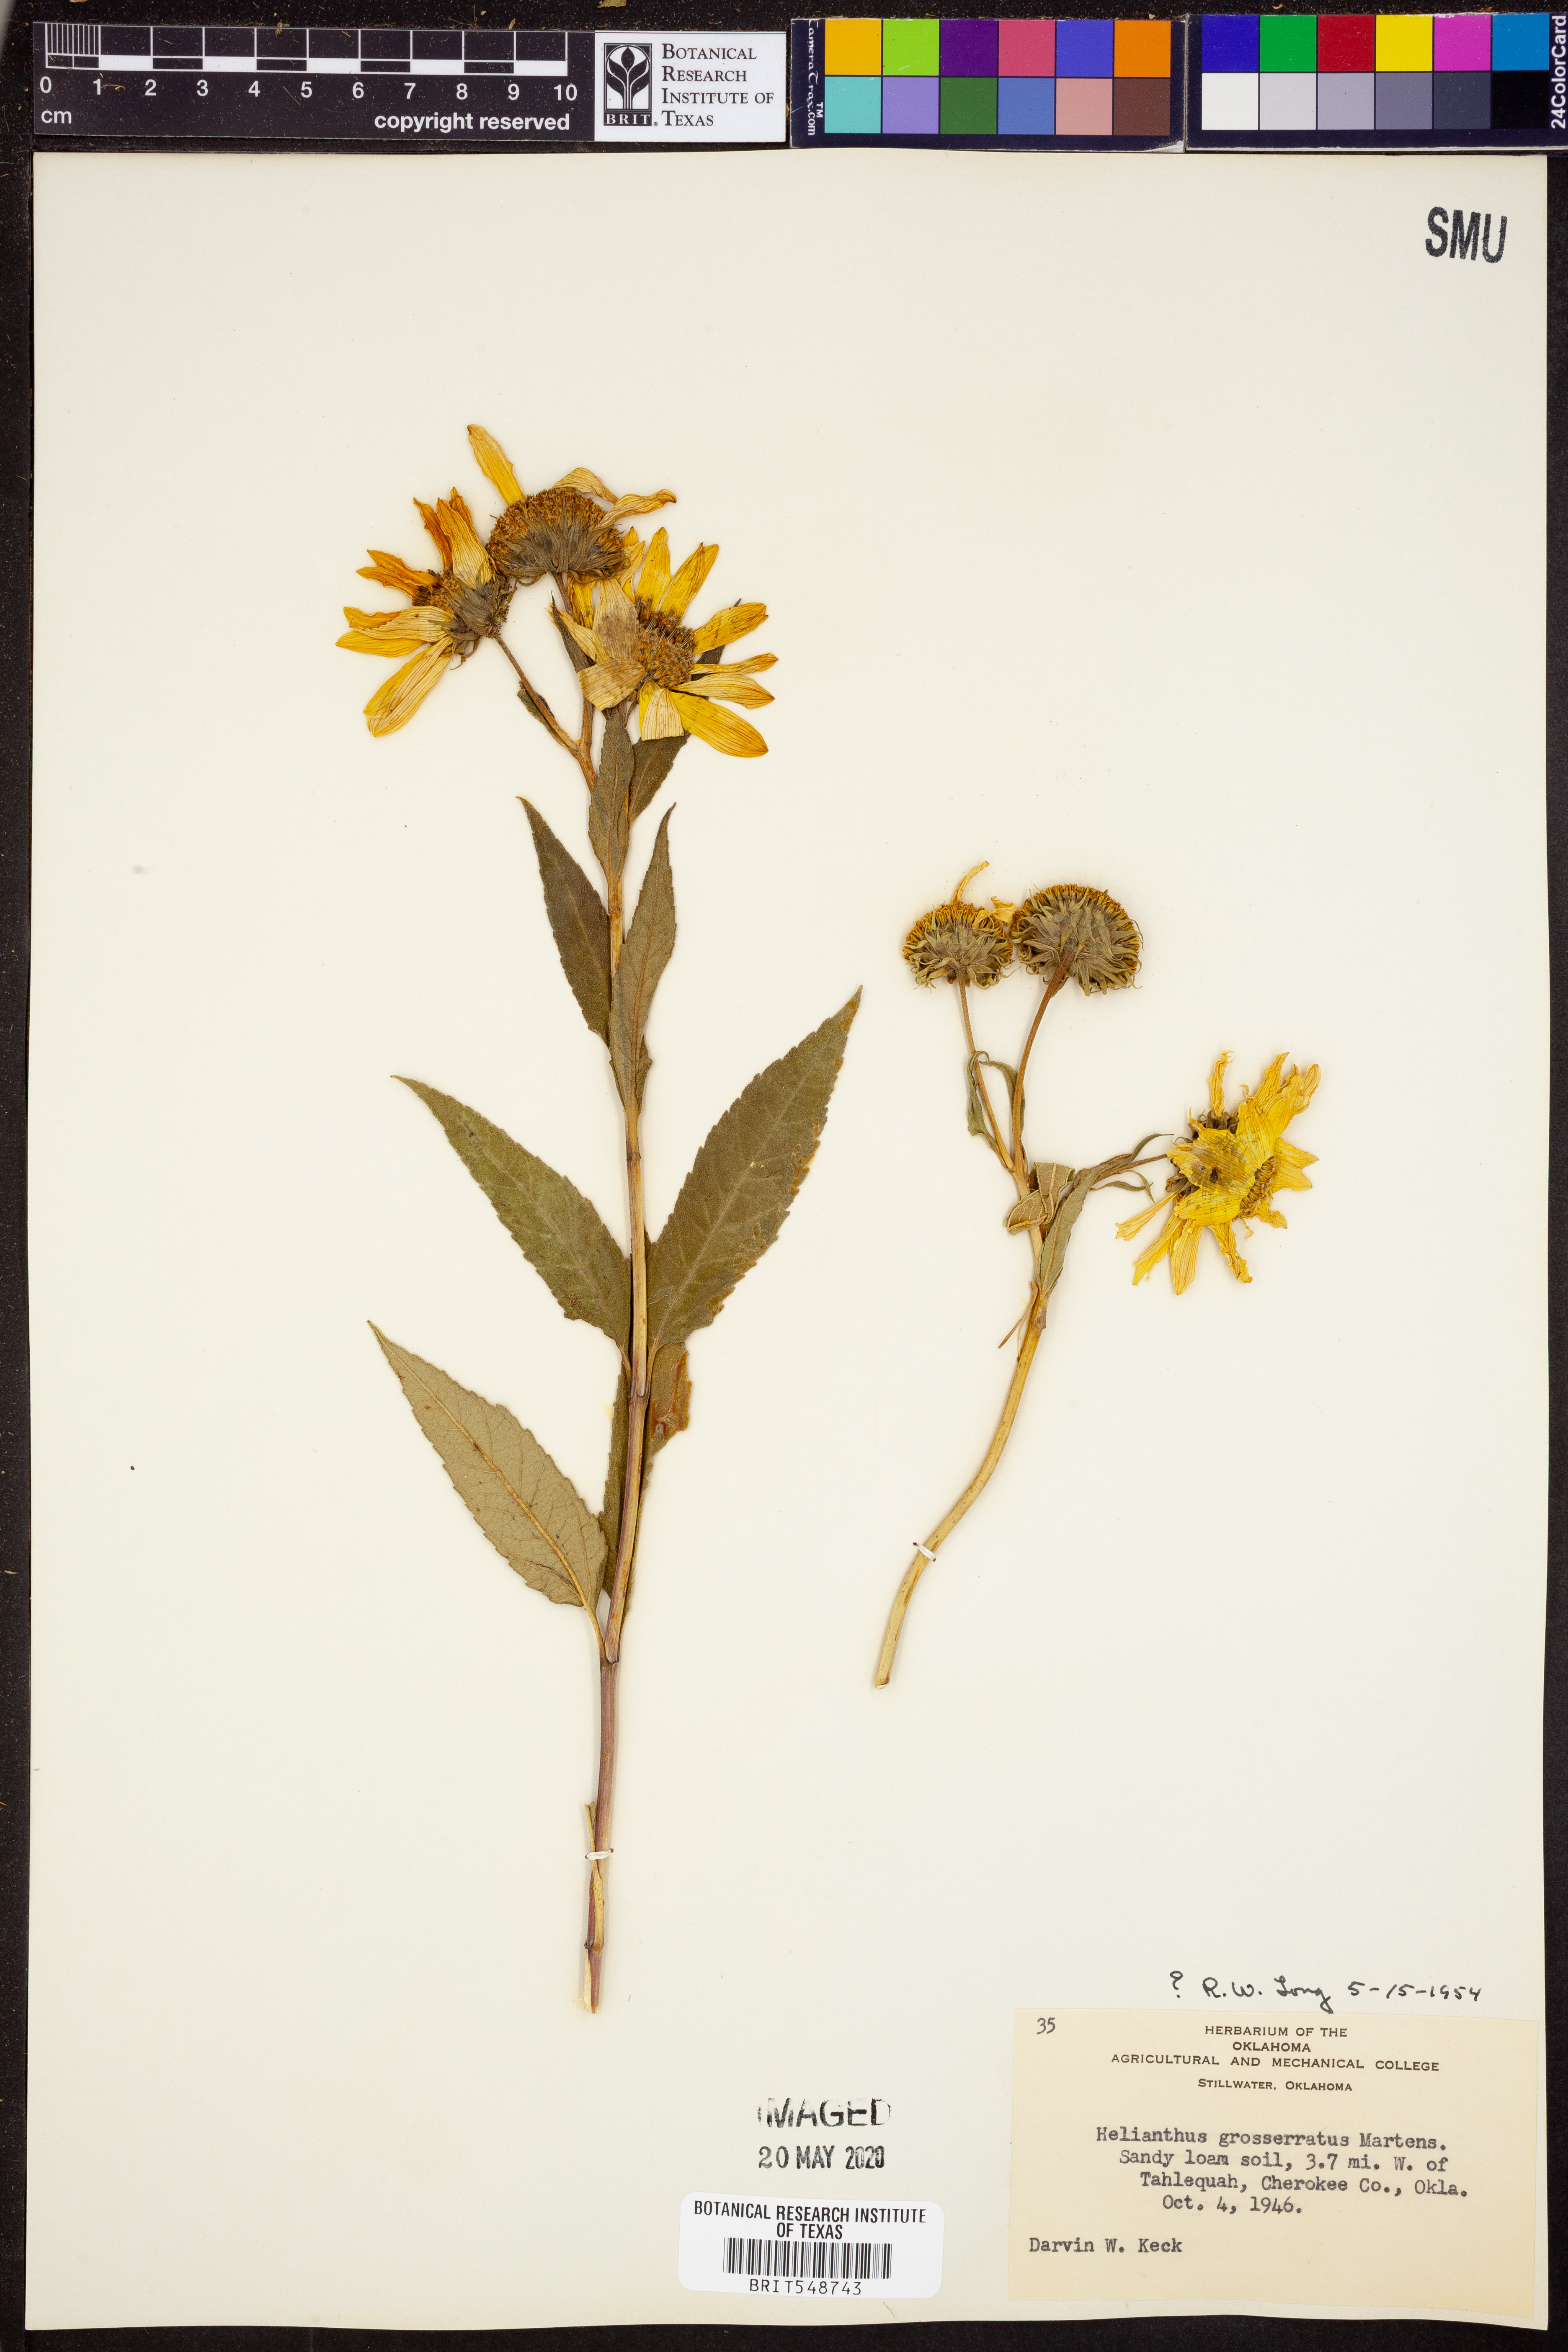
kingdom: Plantae
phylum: Tracheophyta
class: Magnoliopsida
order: Asterales
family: Asteraceae
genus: Helianthus
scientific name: Helianthus grosseserratus
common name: Sawtooth sunflower
